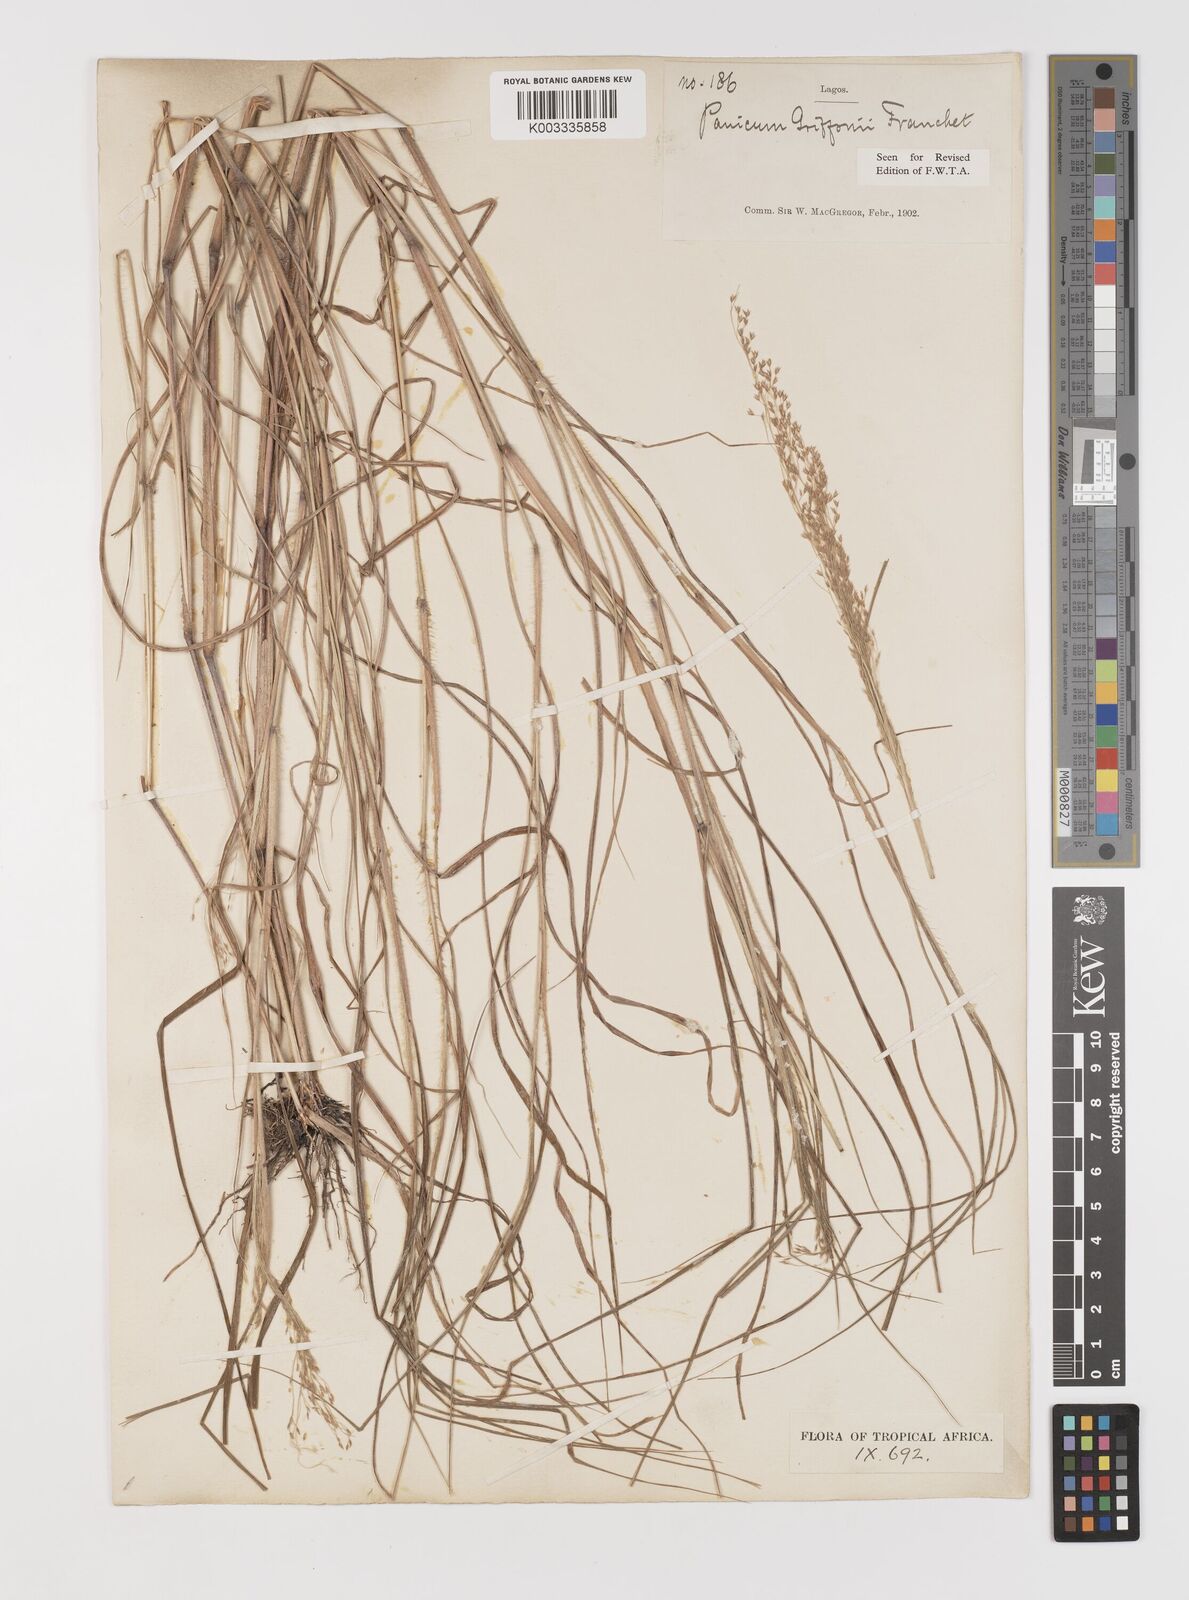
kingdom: Plantae
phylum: Tracheophyta
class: Liliopsida
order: Poales
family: Poaceae
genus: Panicum
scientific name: Panicum griffonii
